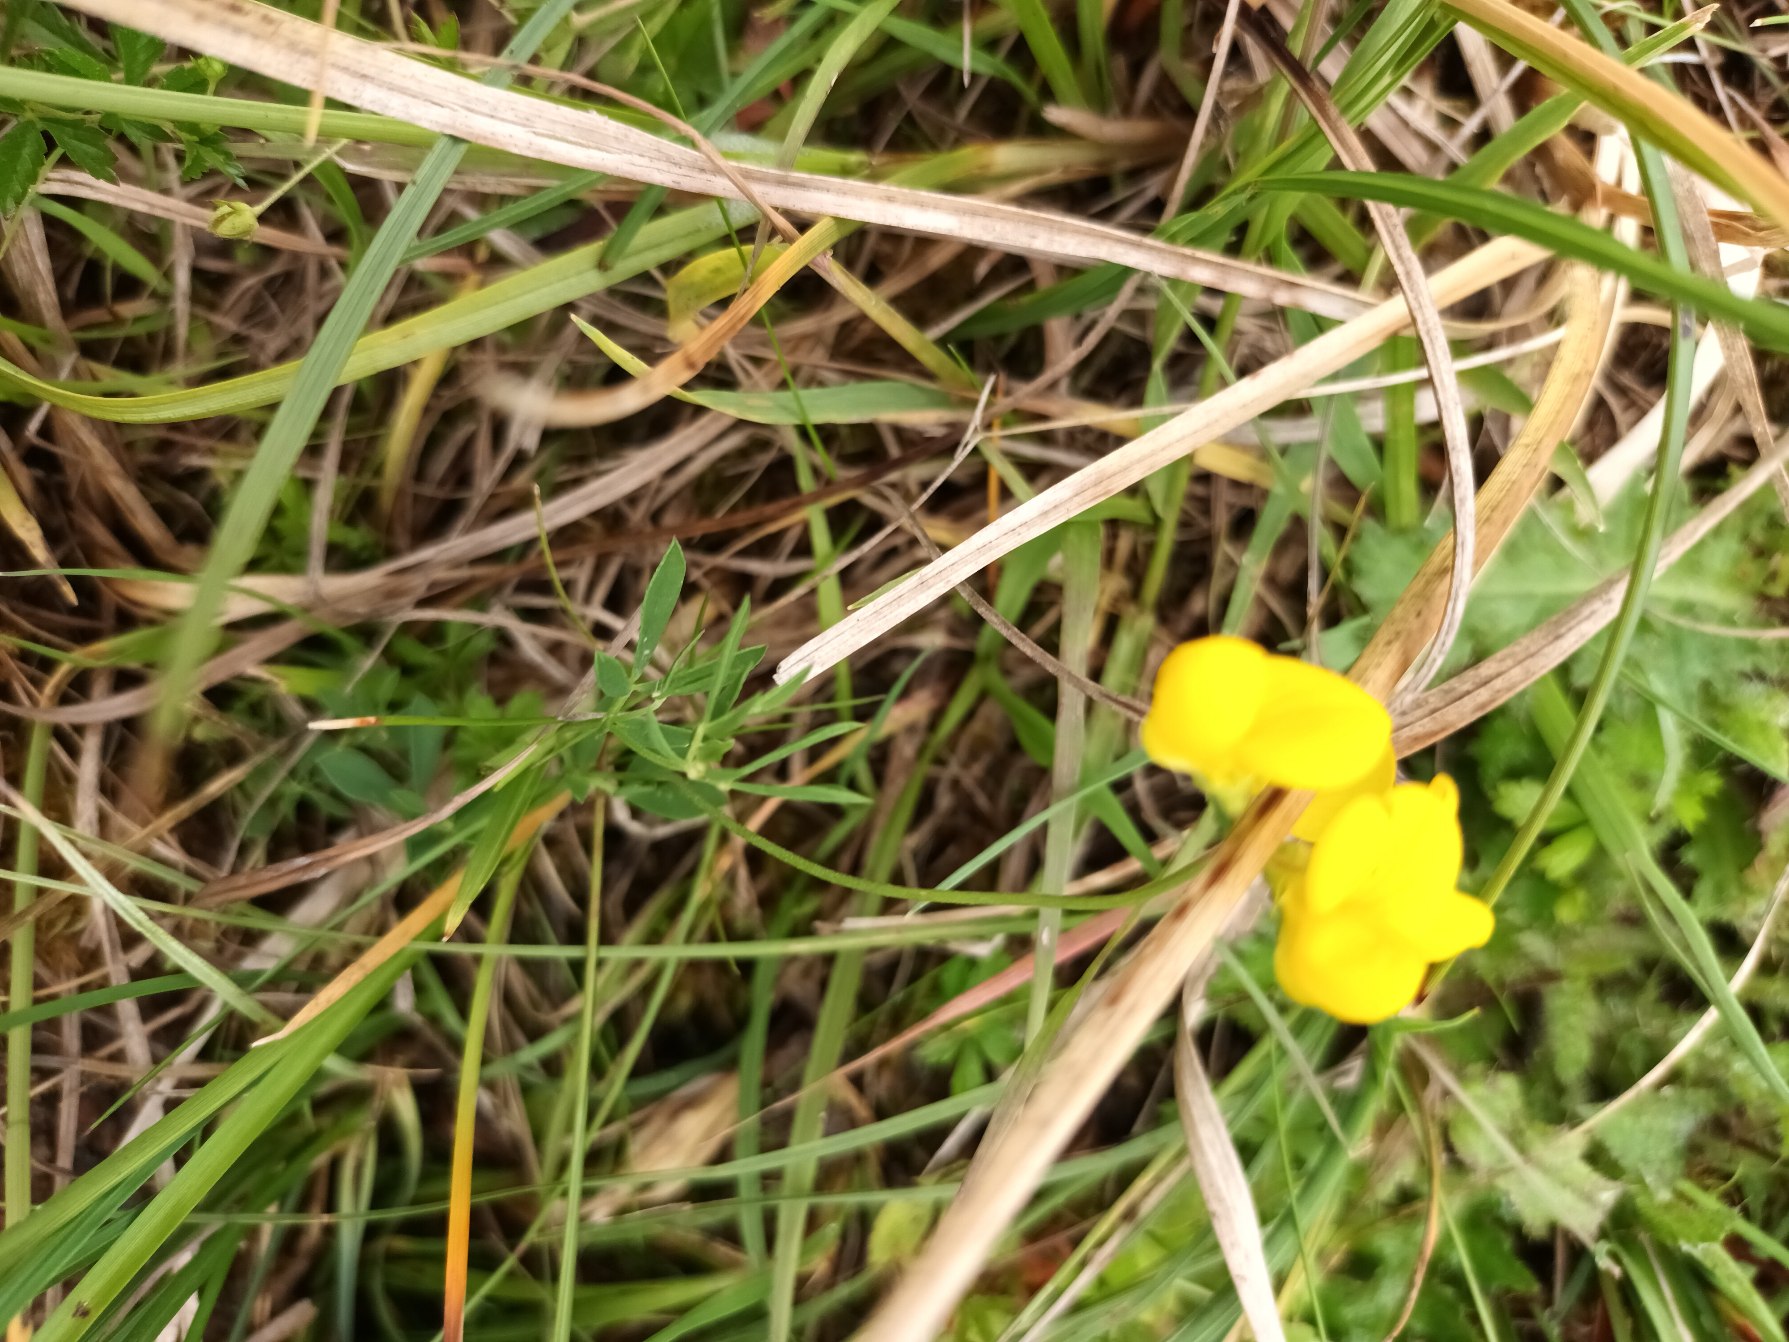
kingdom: Plantae
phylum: Tracheophyta
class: Magnoliopsida
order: Fabales
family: Fabaceae
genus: Lotus
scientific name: Lotus tenuis
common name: Smalbladet kællingetand
